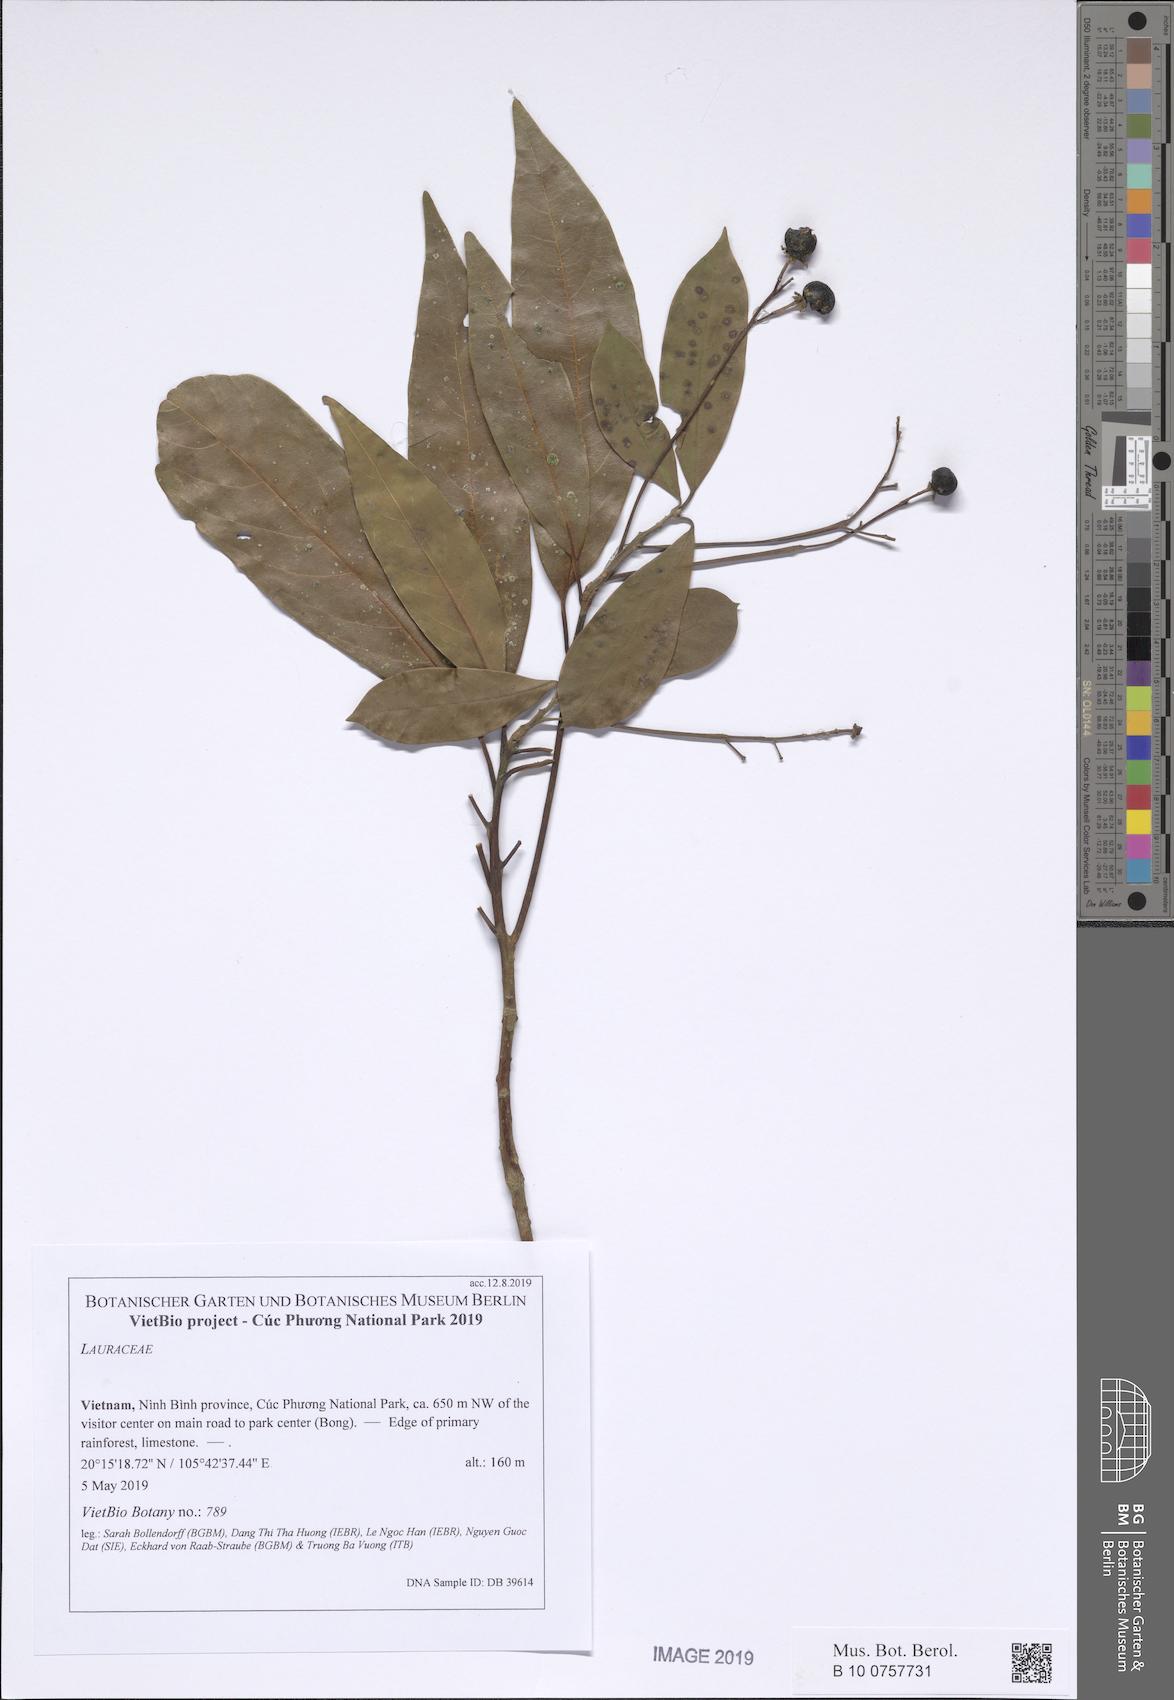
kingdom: Plantae
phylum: Tracheophyta
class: Magnoliopsida
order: Laurales
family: Lauraceae
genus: Machilus
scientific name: Machilus thunbergii
